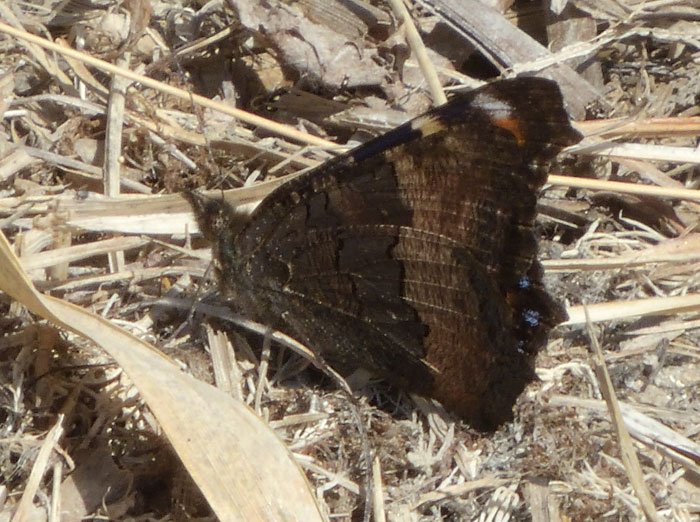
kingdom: Animalia
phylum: Arthropoda
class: Insecta
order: Lepidoptera
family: Nymphalidae
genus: Aglais
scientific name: Aglais milberti
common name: Milbert's Tortoiseshell
